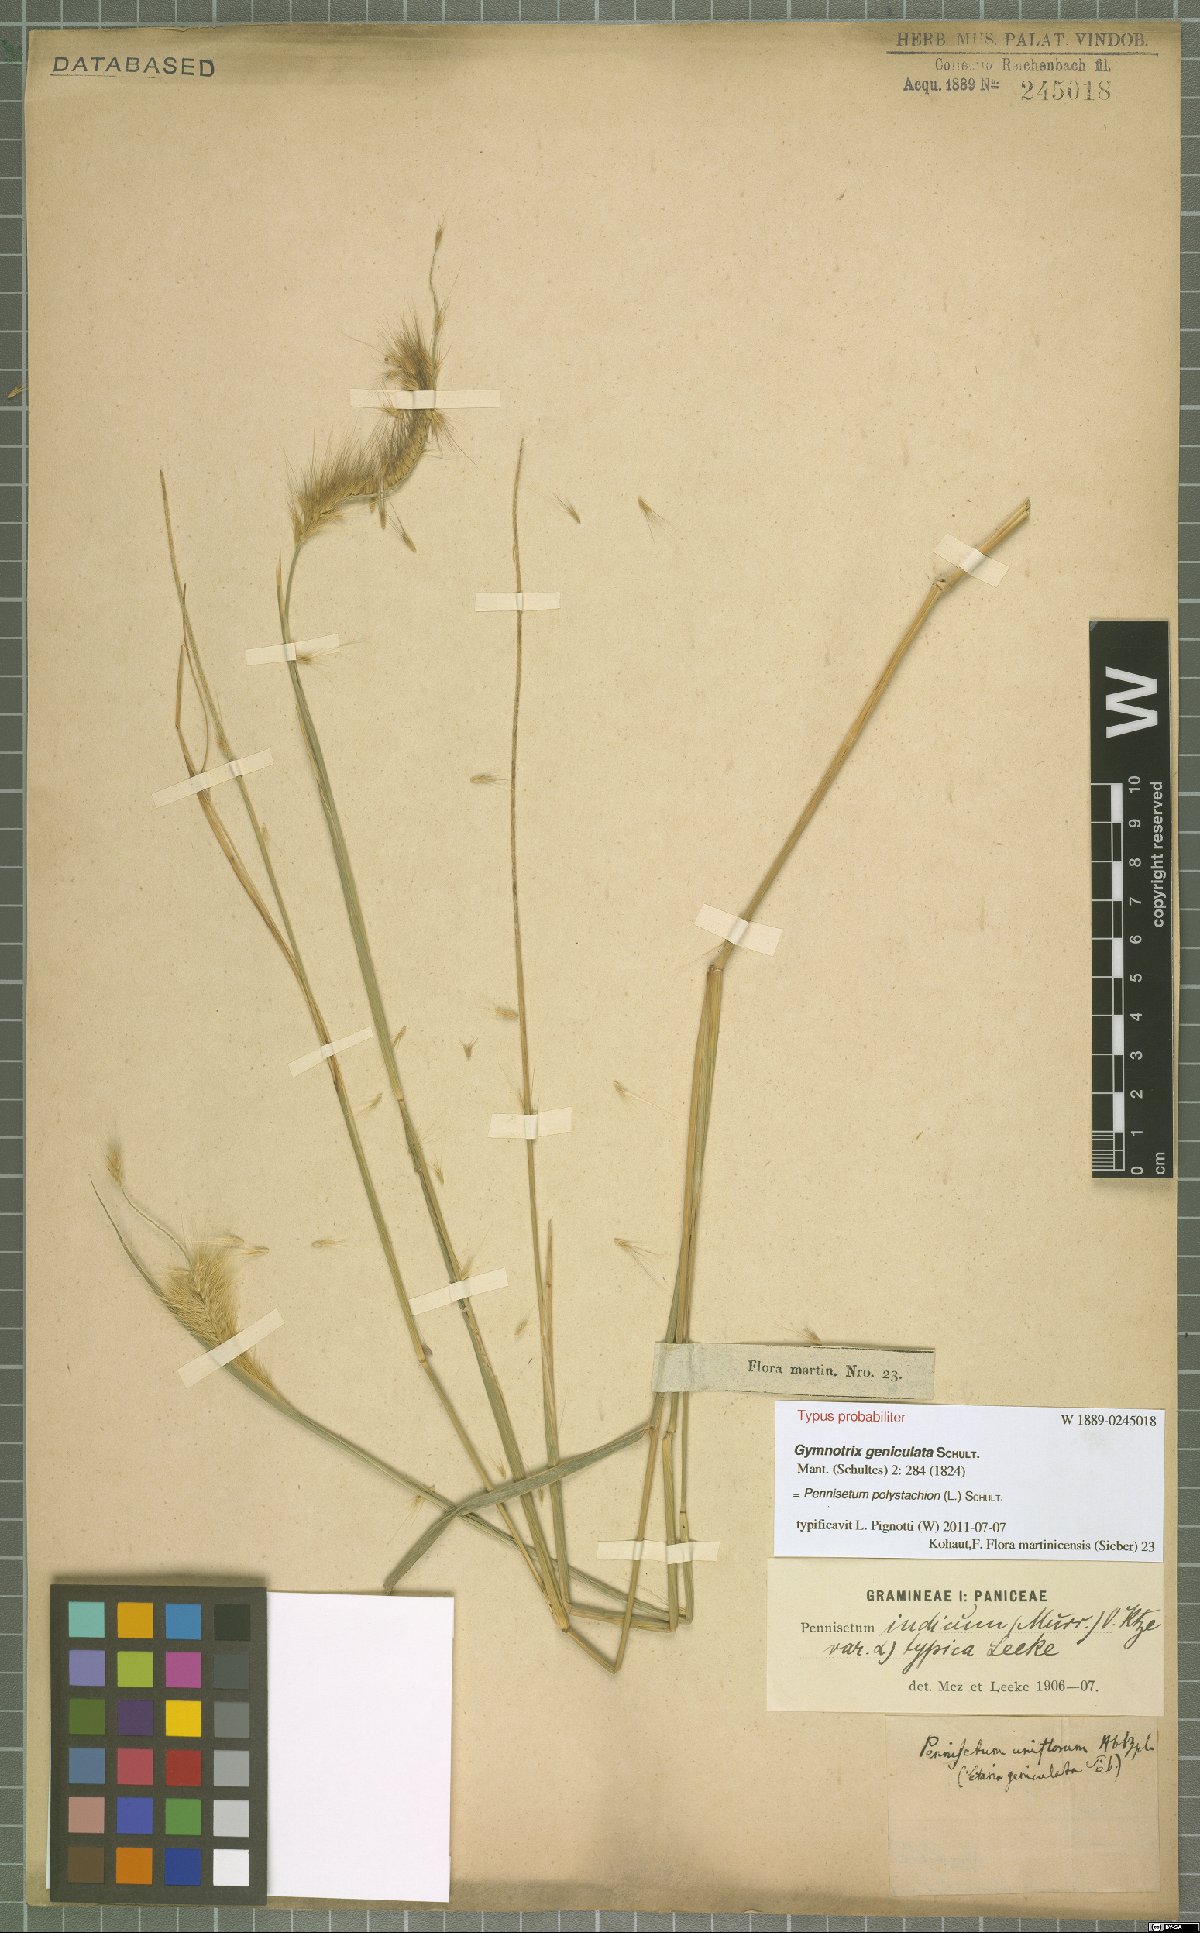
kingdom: Plantae
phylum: Tracheophyta
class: Liliopsida
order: Poales
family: Poaceae
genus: Setaria
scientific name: Setaria parviflora
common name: Knotroot bristle-grass
